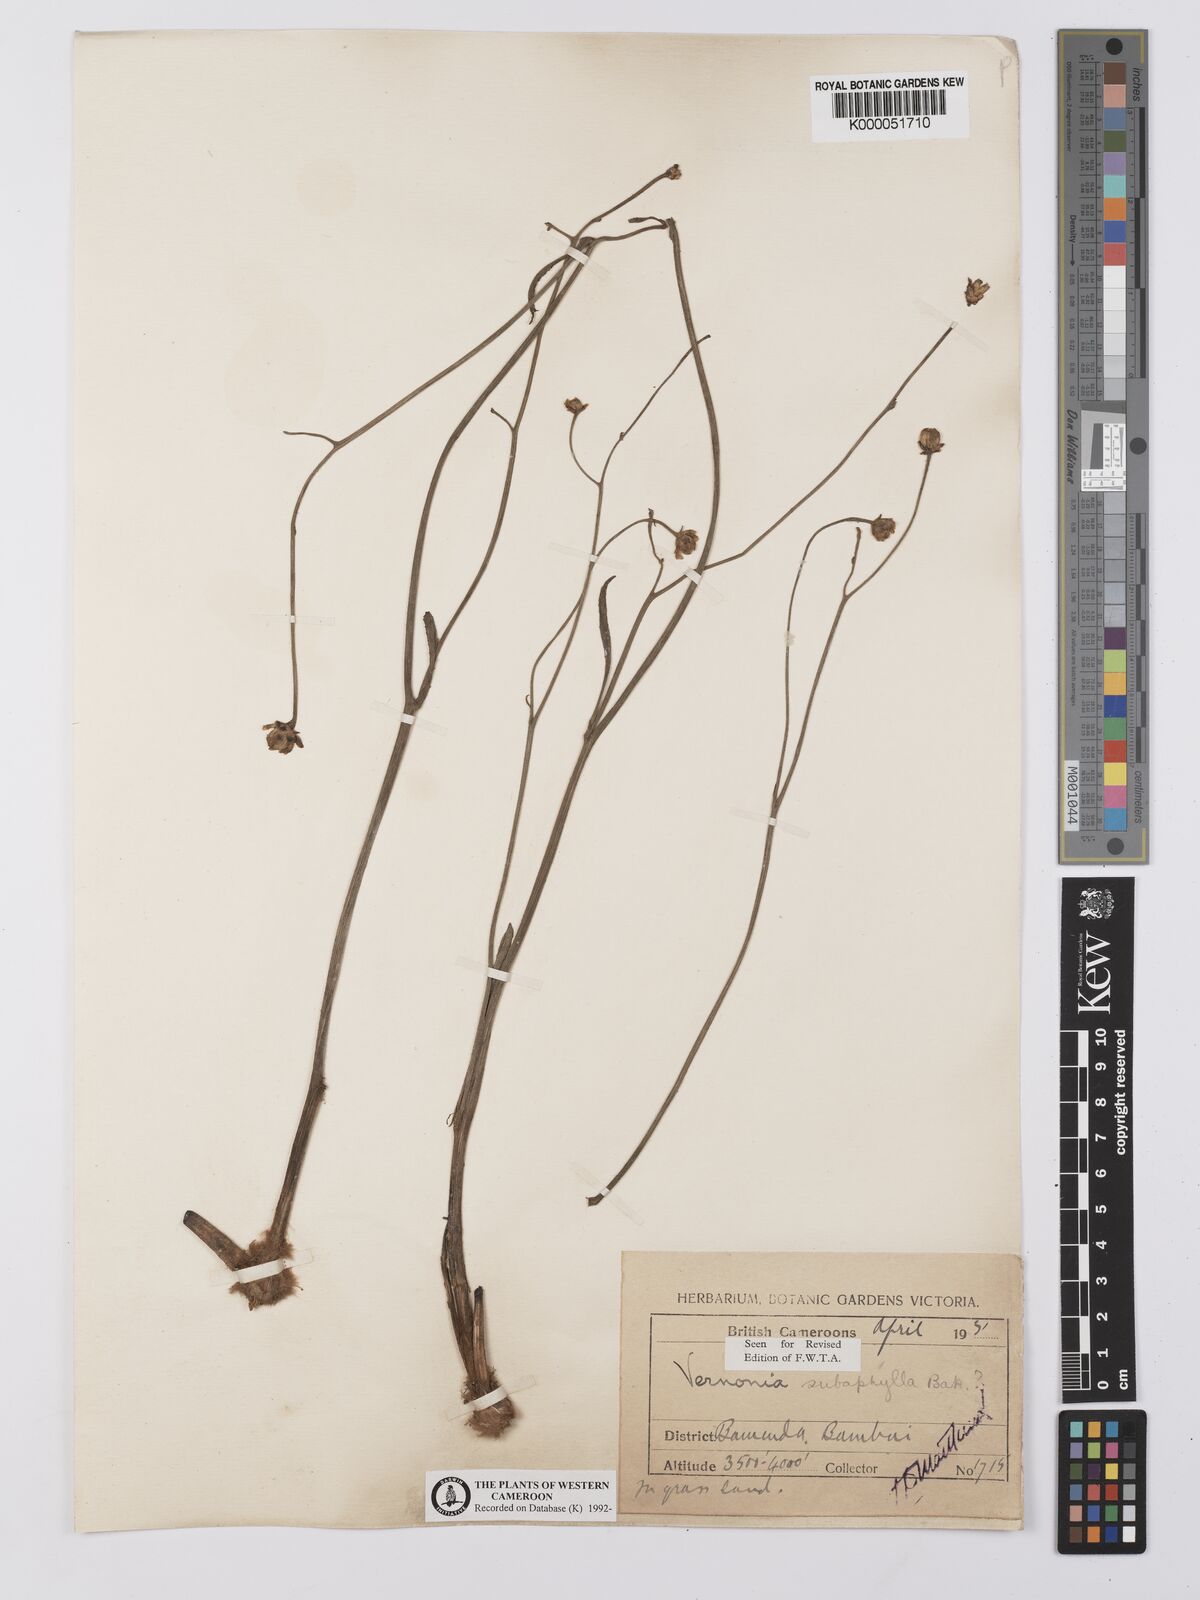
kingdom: Plantae
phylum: Tracheophyta
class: Magnoliopsida
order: Asterales
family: Asteraceae
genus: Vernonella
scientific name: Vernonella subaphylla
